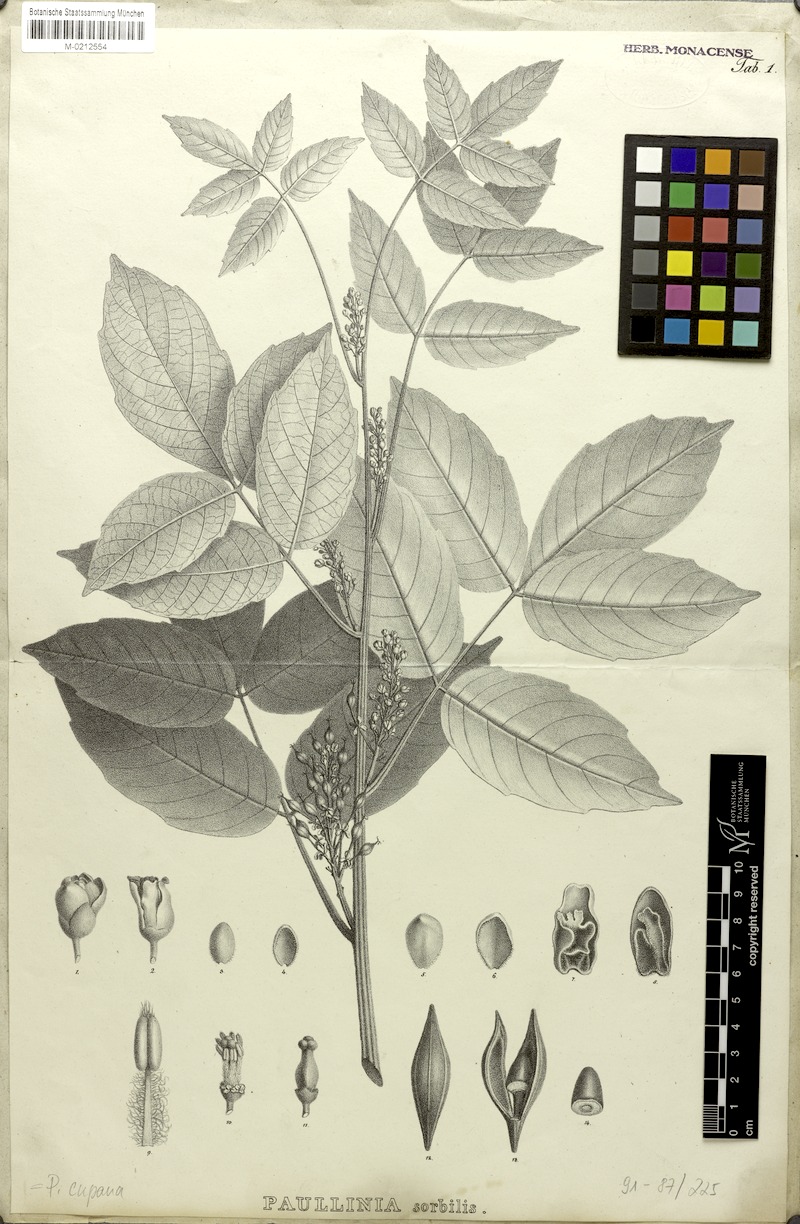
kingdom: Plantae
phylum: Tracheophyta
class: Magnoliopsida
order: Sapindales
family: Sapindaceae
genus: Paullinia
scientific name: Paullinia cupana
